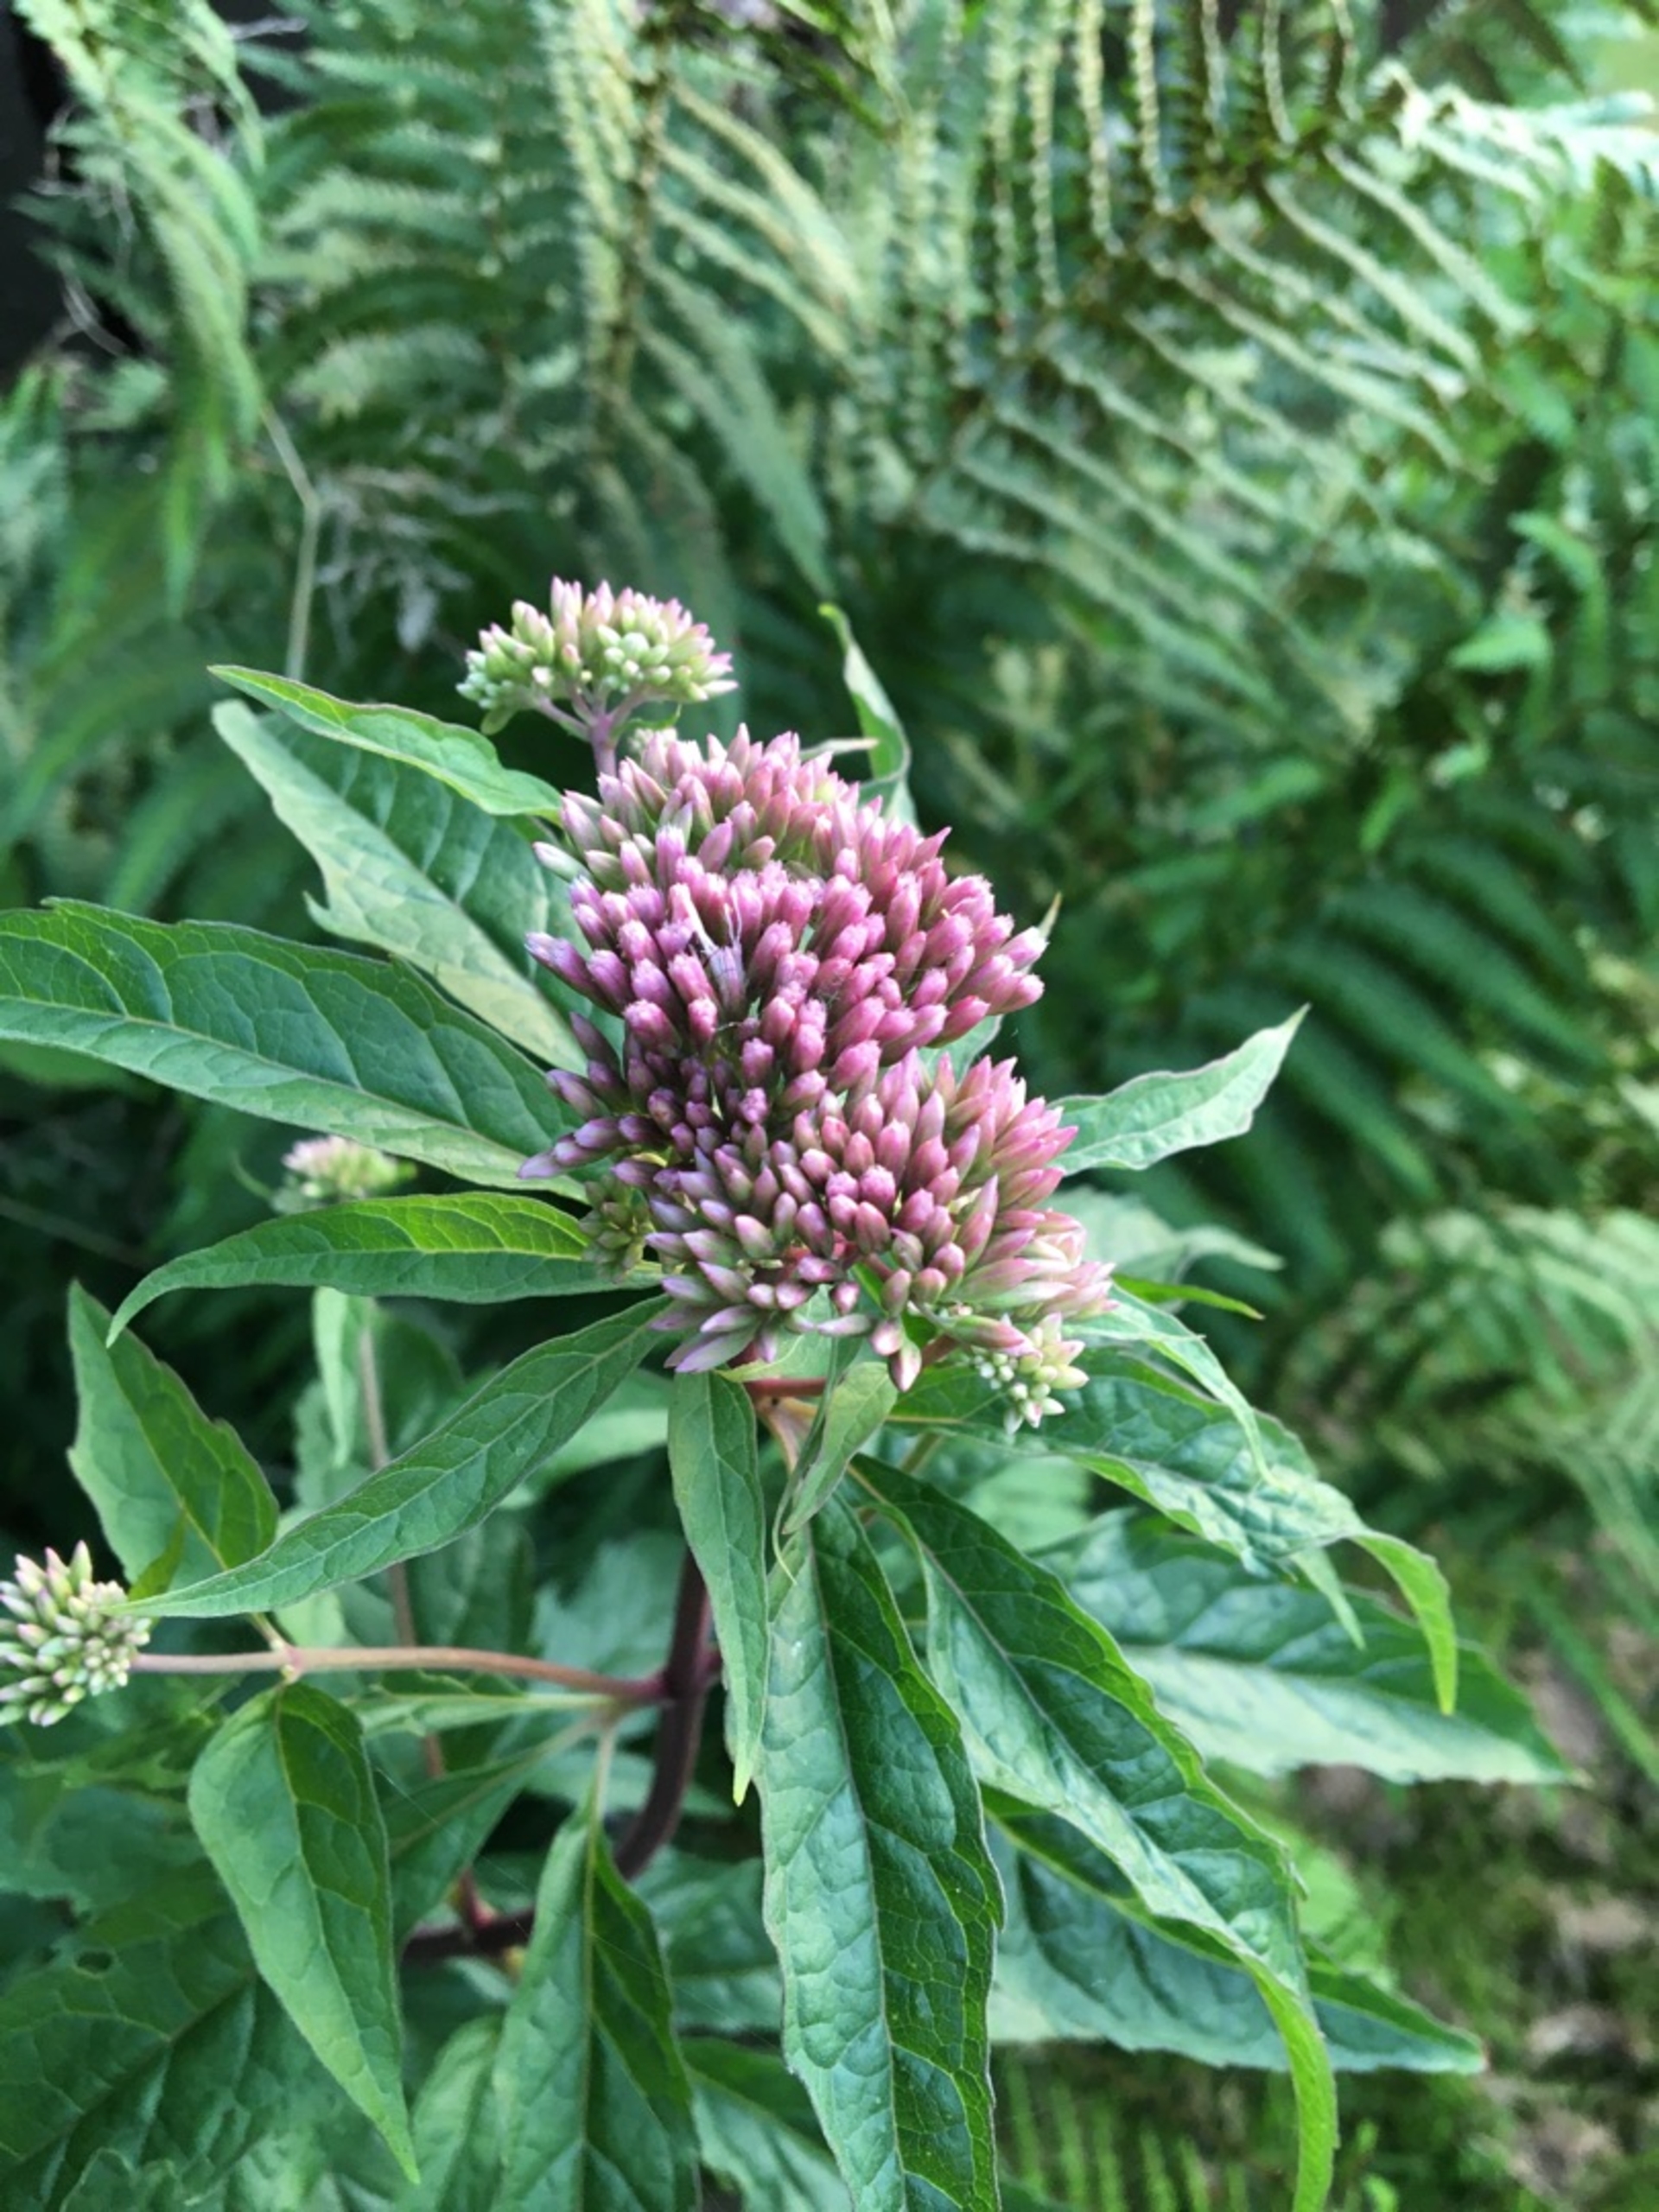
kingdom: Plantae
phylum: Tracheophyta
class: Magnoliopsida
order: Asterales
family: Asteraceae
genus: Eupatorium
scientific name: Eupatorium cannabinum
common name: Hjortetrøst
